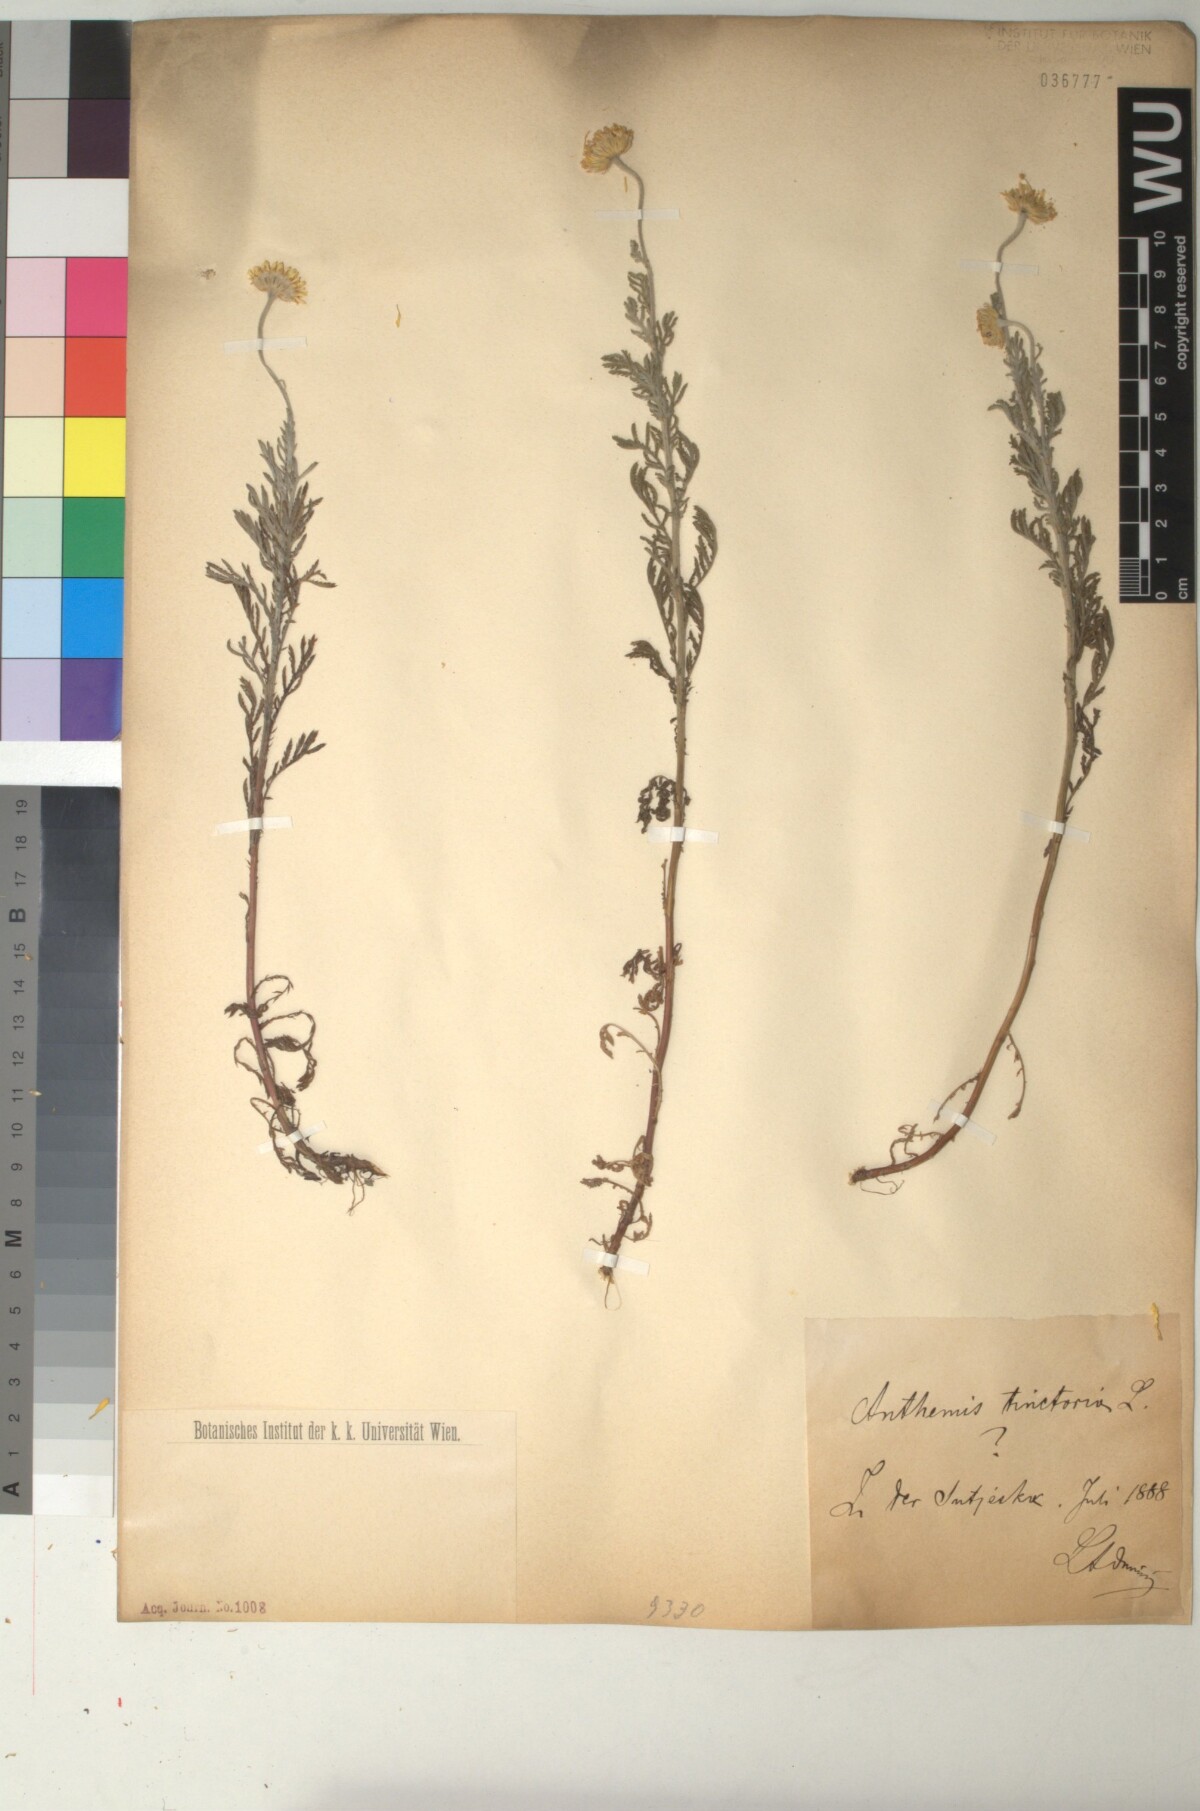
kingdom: Plantae
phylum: Tracheophyta
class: Magnoliopsida
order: Asterales
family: Asteraceae
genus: Cota
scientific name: Cota tinctoria
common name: Golden chamomile
